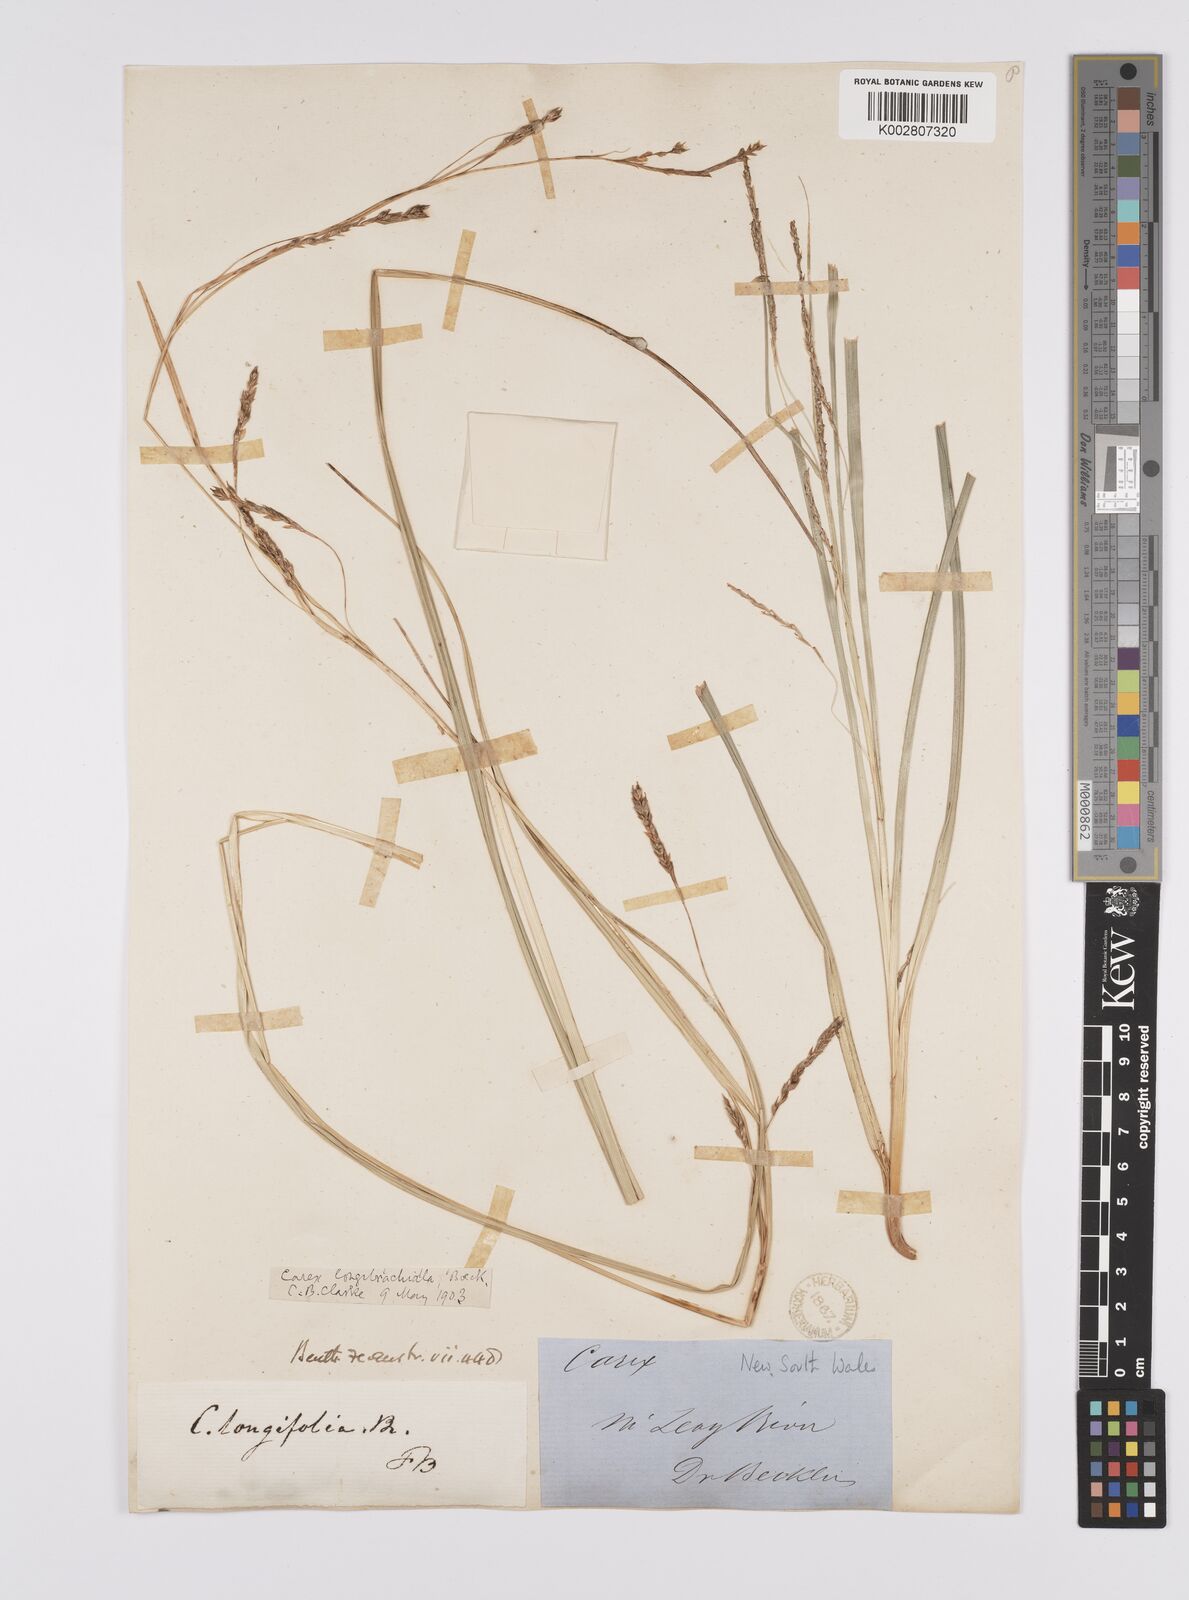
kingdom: Plantae
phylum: Tracheophyta
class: Liliopsida
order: Poales
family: Cyperaceae
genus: Carex
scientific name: Carex pseudocyperus
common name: Cyperus sedge
